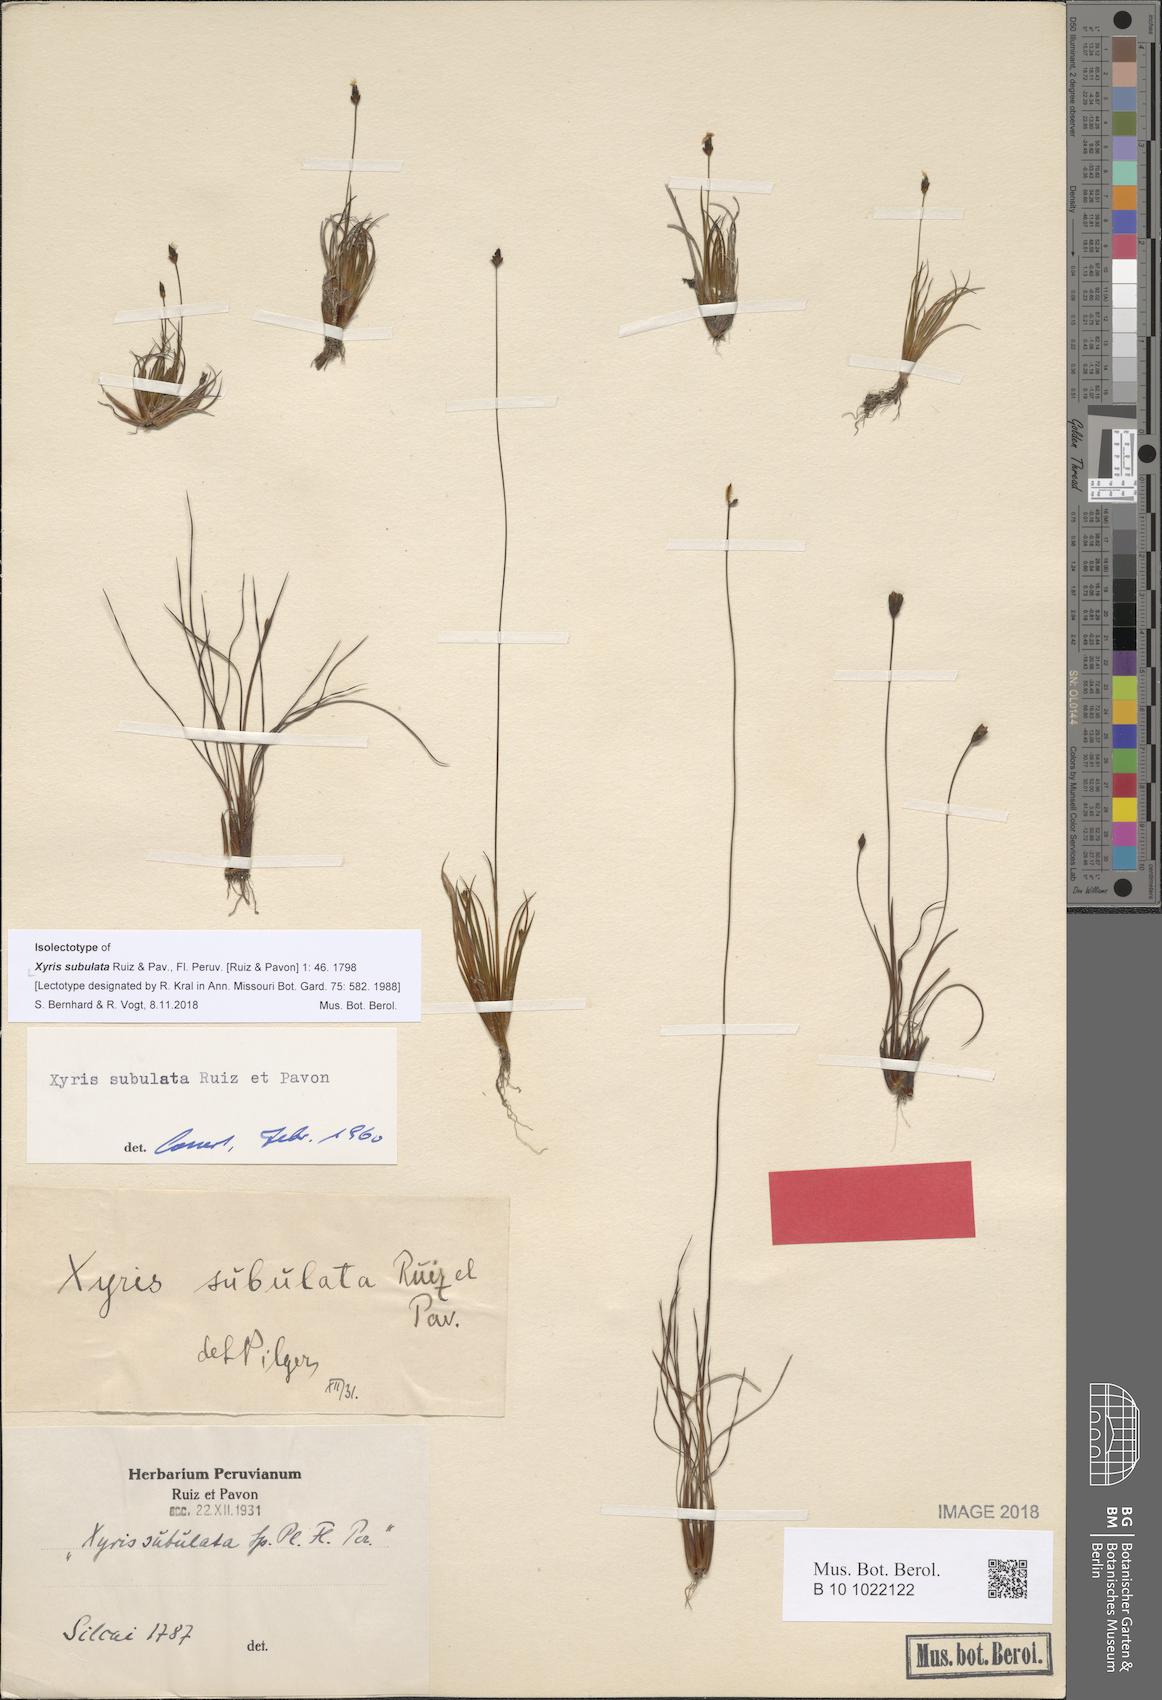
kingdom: Plantae
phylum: Tracheophyta
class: Liliopsida
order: Poales
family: Xyridaceae
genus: Xyris
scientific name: Xyris subulata
